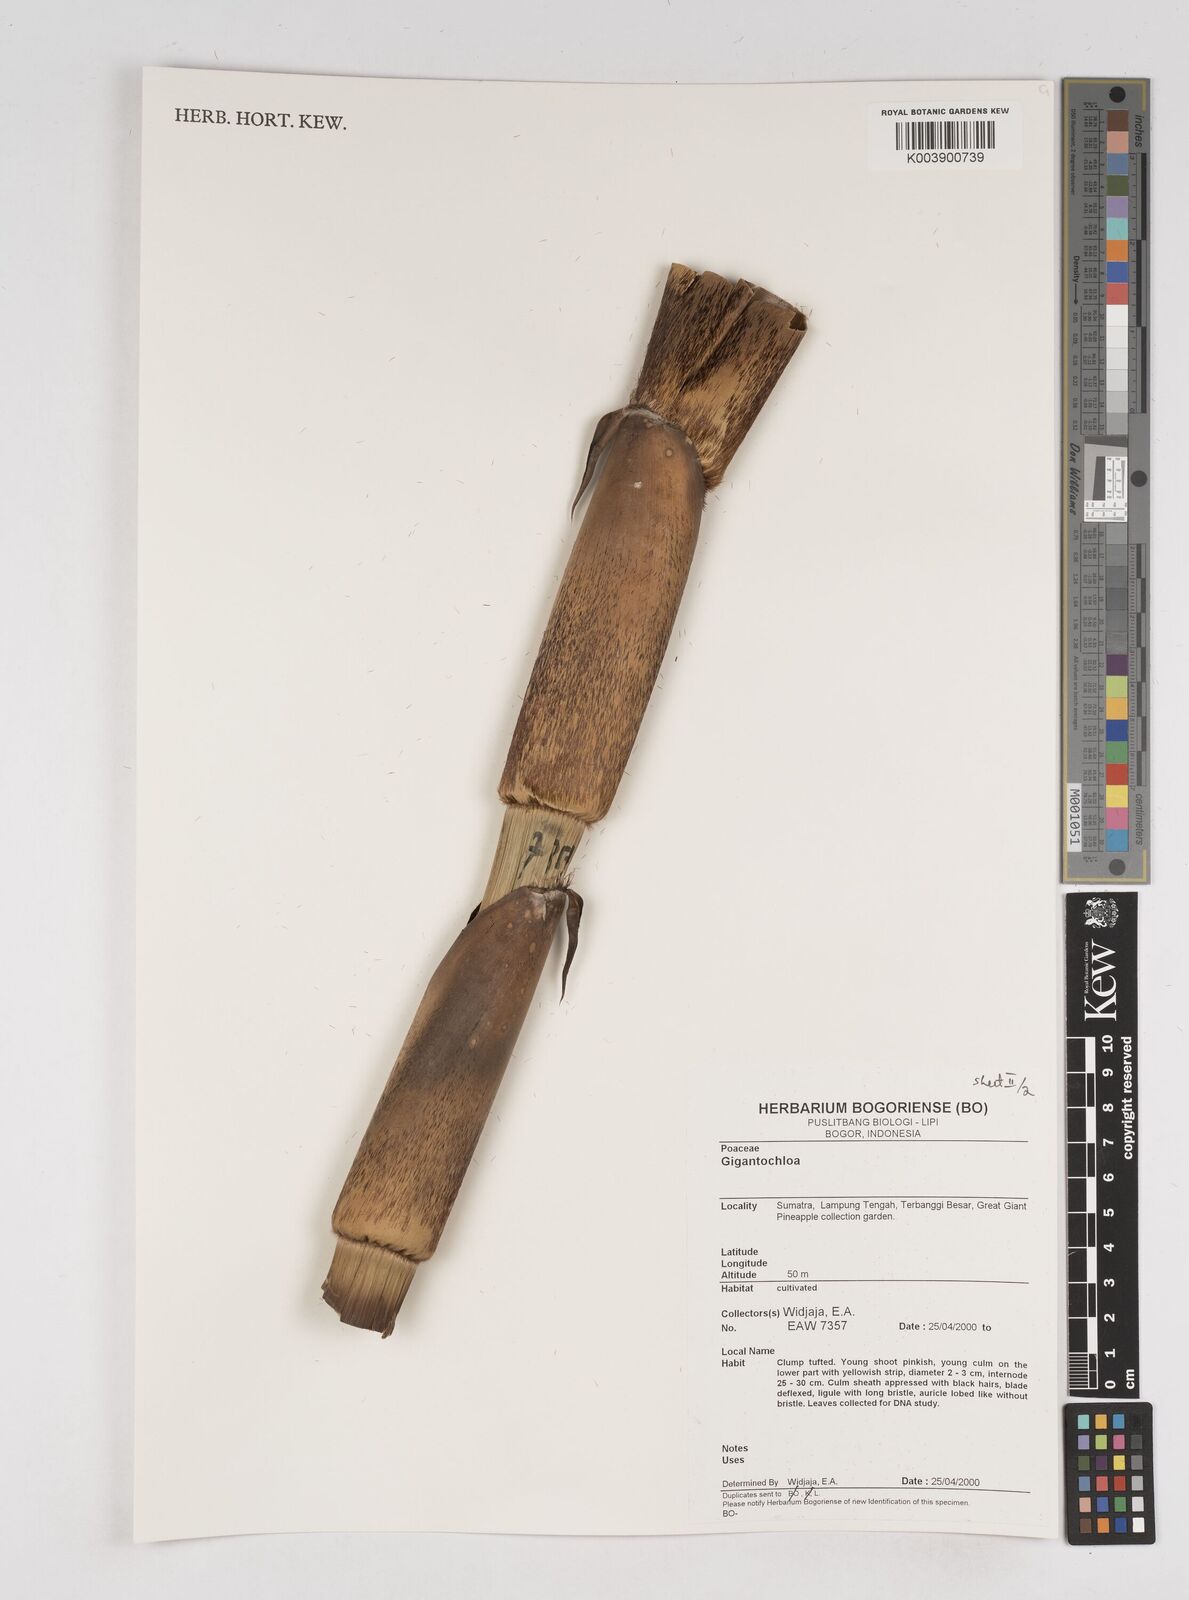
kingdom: Plantae
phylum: Tracheophyta
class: Liliopsida
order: Poales
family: Poaceae
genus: Gigantochloa
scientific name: Gigantochloa
